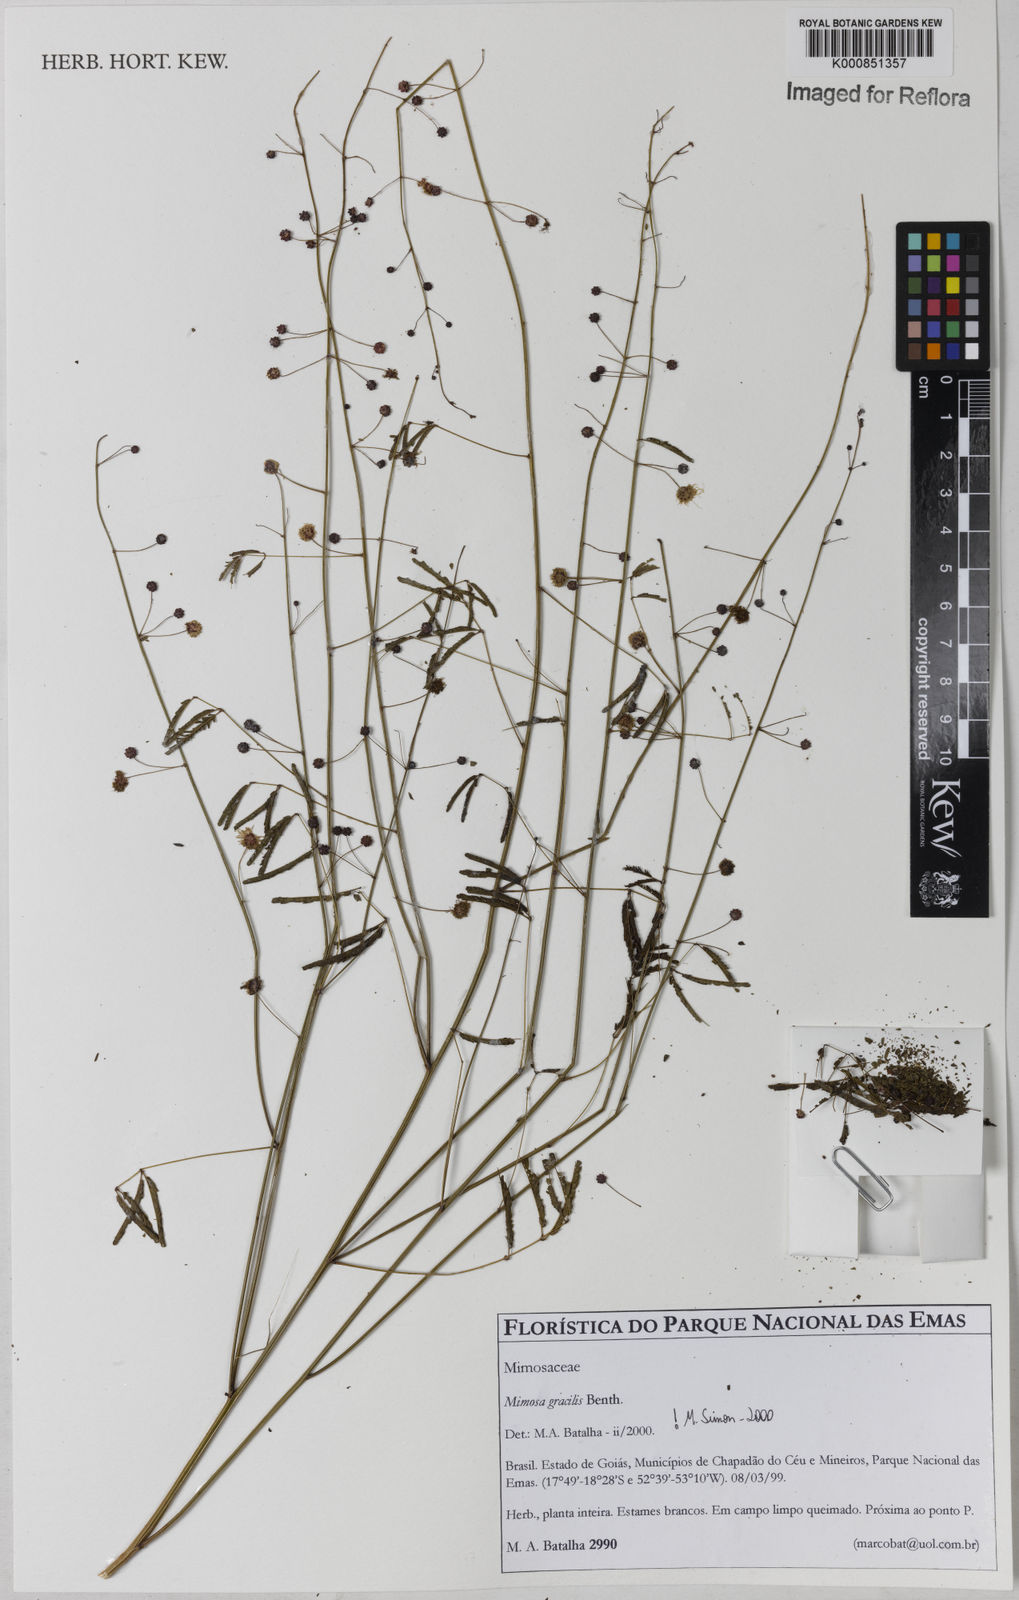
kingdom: Plantae
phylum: Tracheophyta
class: Magnoliopsida
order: Fabales
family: Fabaceae
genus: Mimosa
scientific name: Mimosa gracilis
